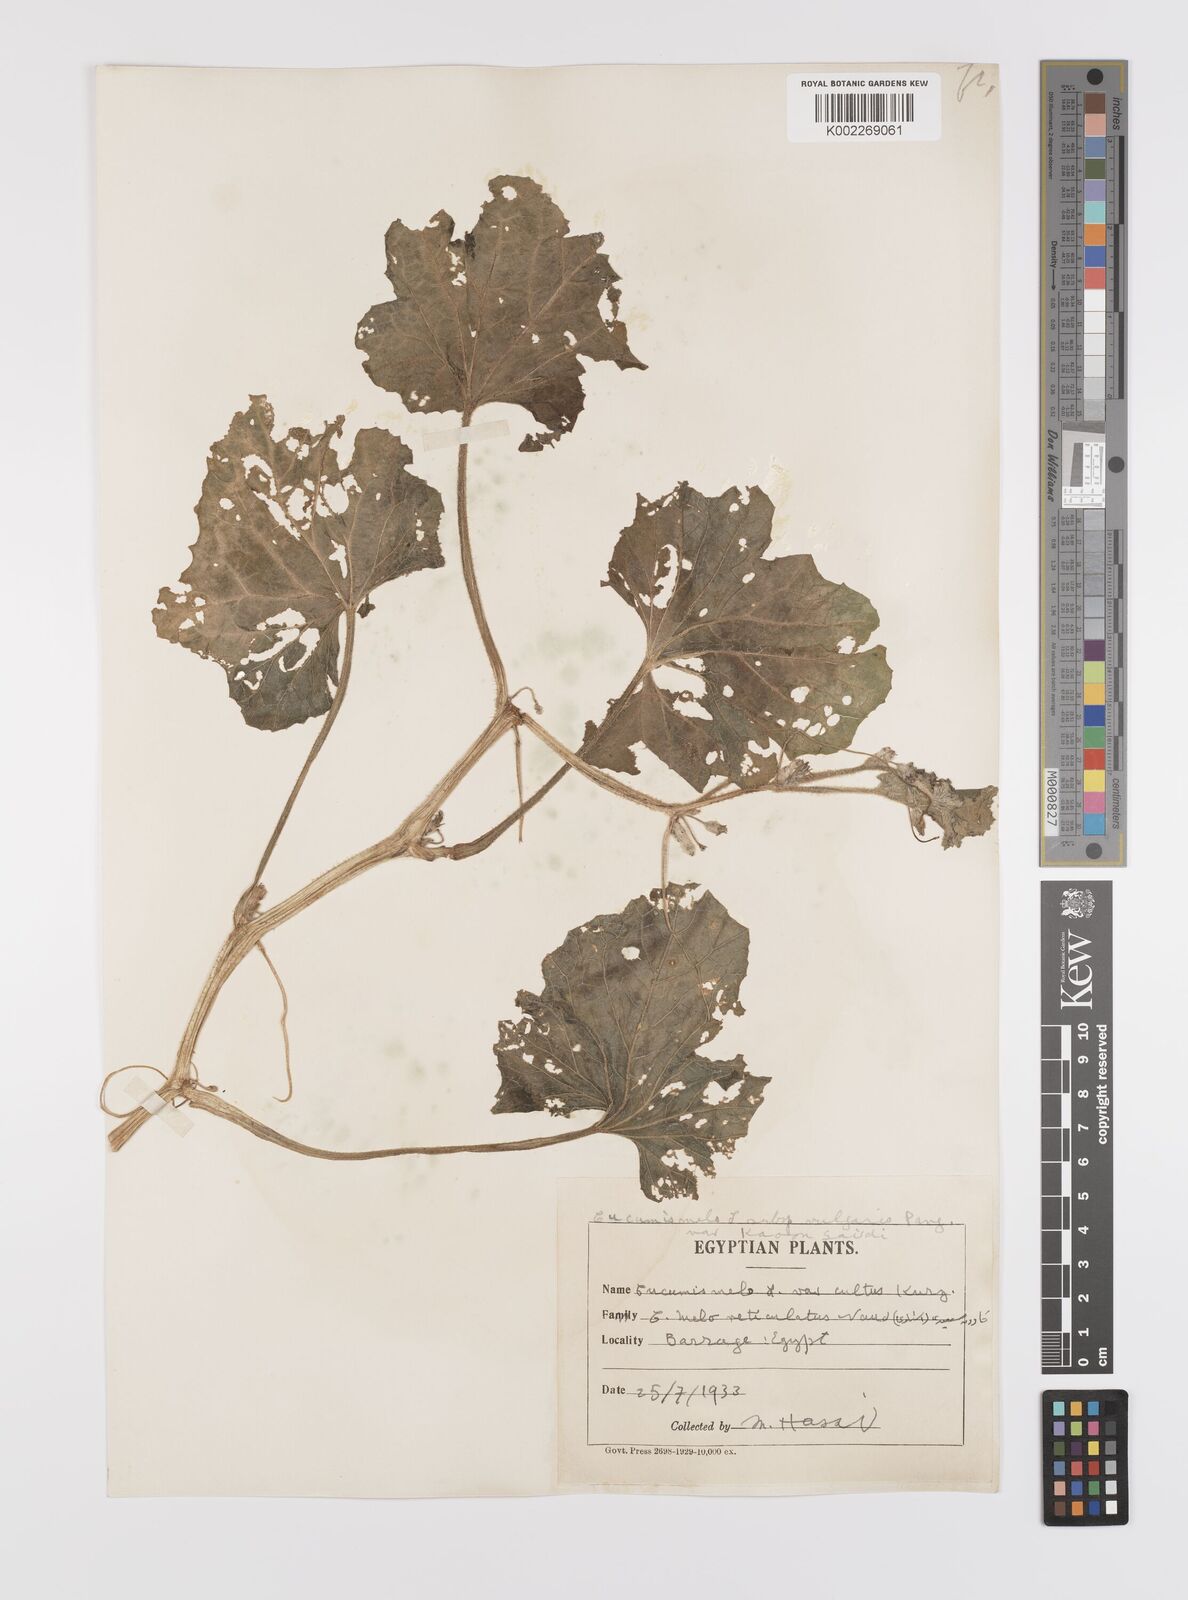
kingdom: Plantae
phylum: Tracheophyta
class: Magnoliopsida
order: Cucurbitales
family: Cucurbitaceae
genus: Cucumis
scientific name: Cucumis melo
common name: Melon
